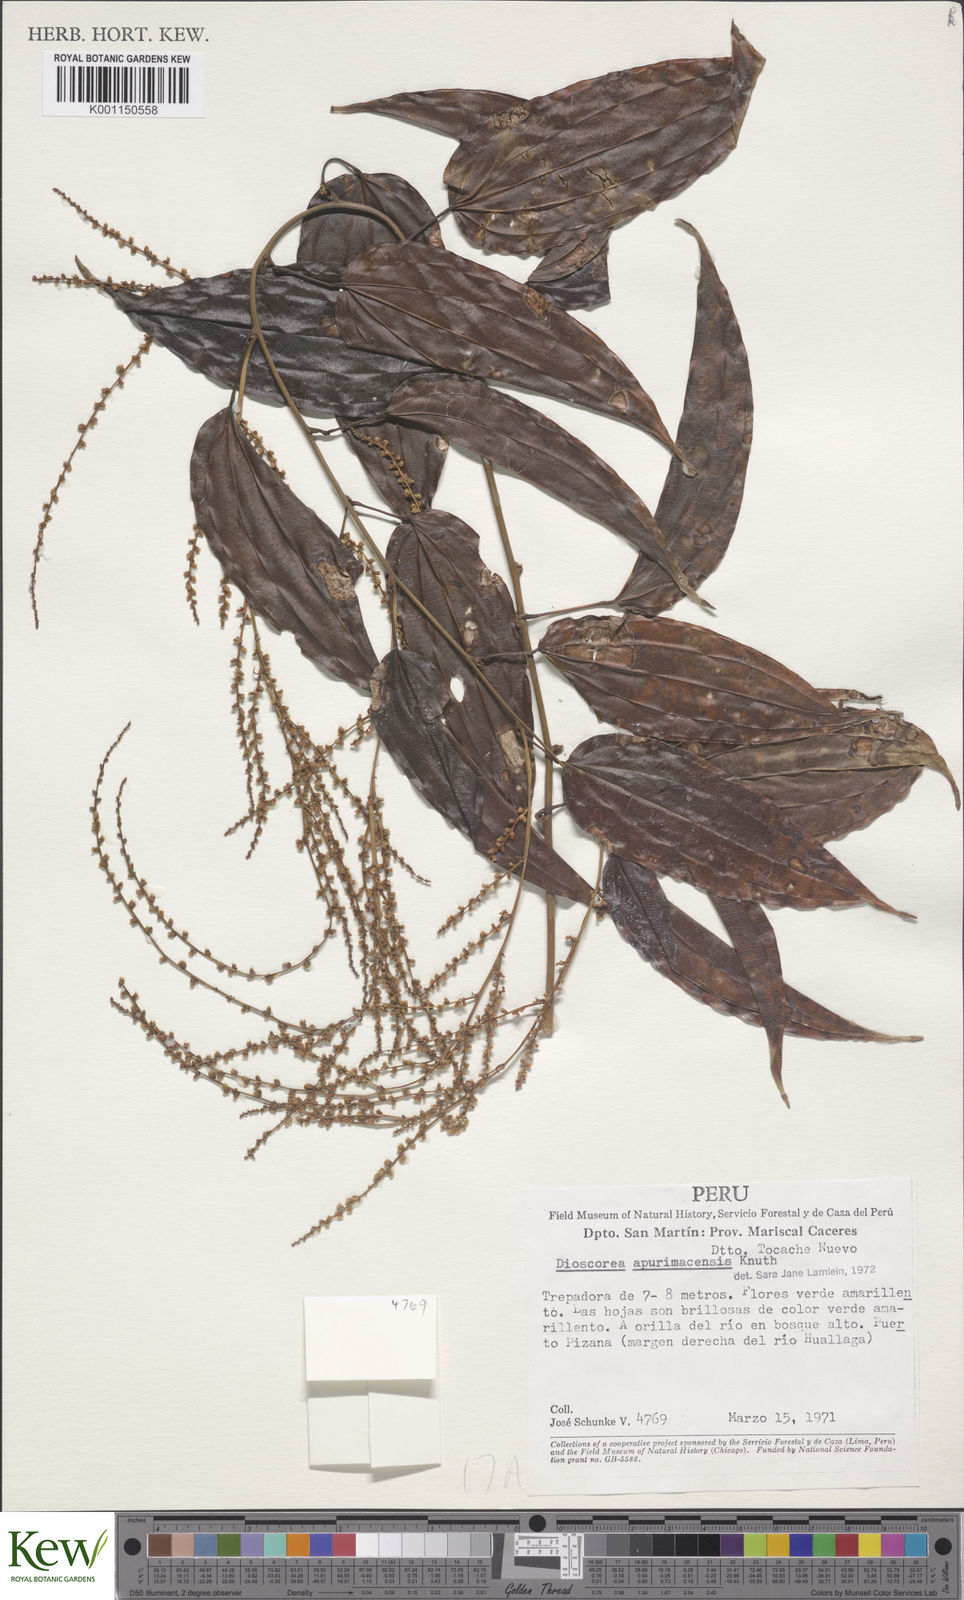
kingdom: Plantae
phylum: Tracheophyta
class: Liliopsida
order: Dioscoreales
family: Dioscoreaceae
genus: Dioscorea
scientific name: Dioscorea acanthogene
